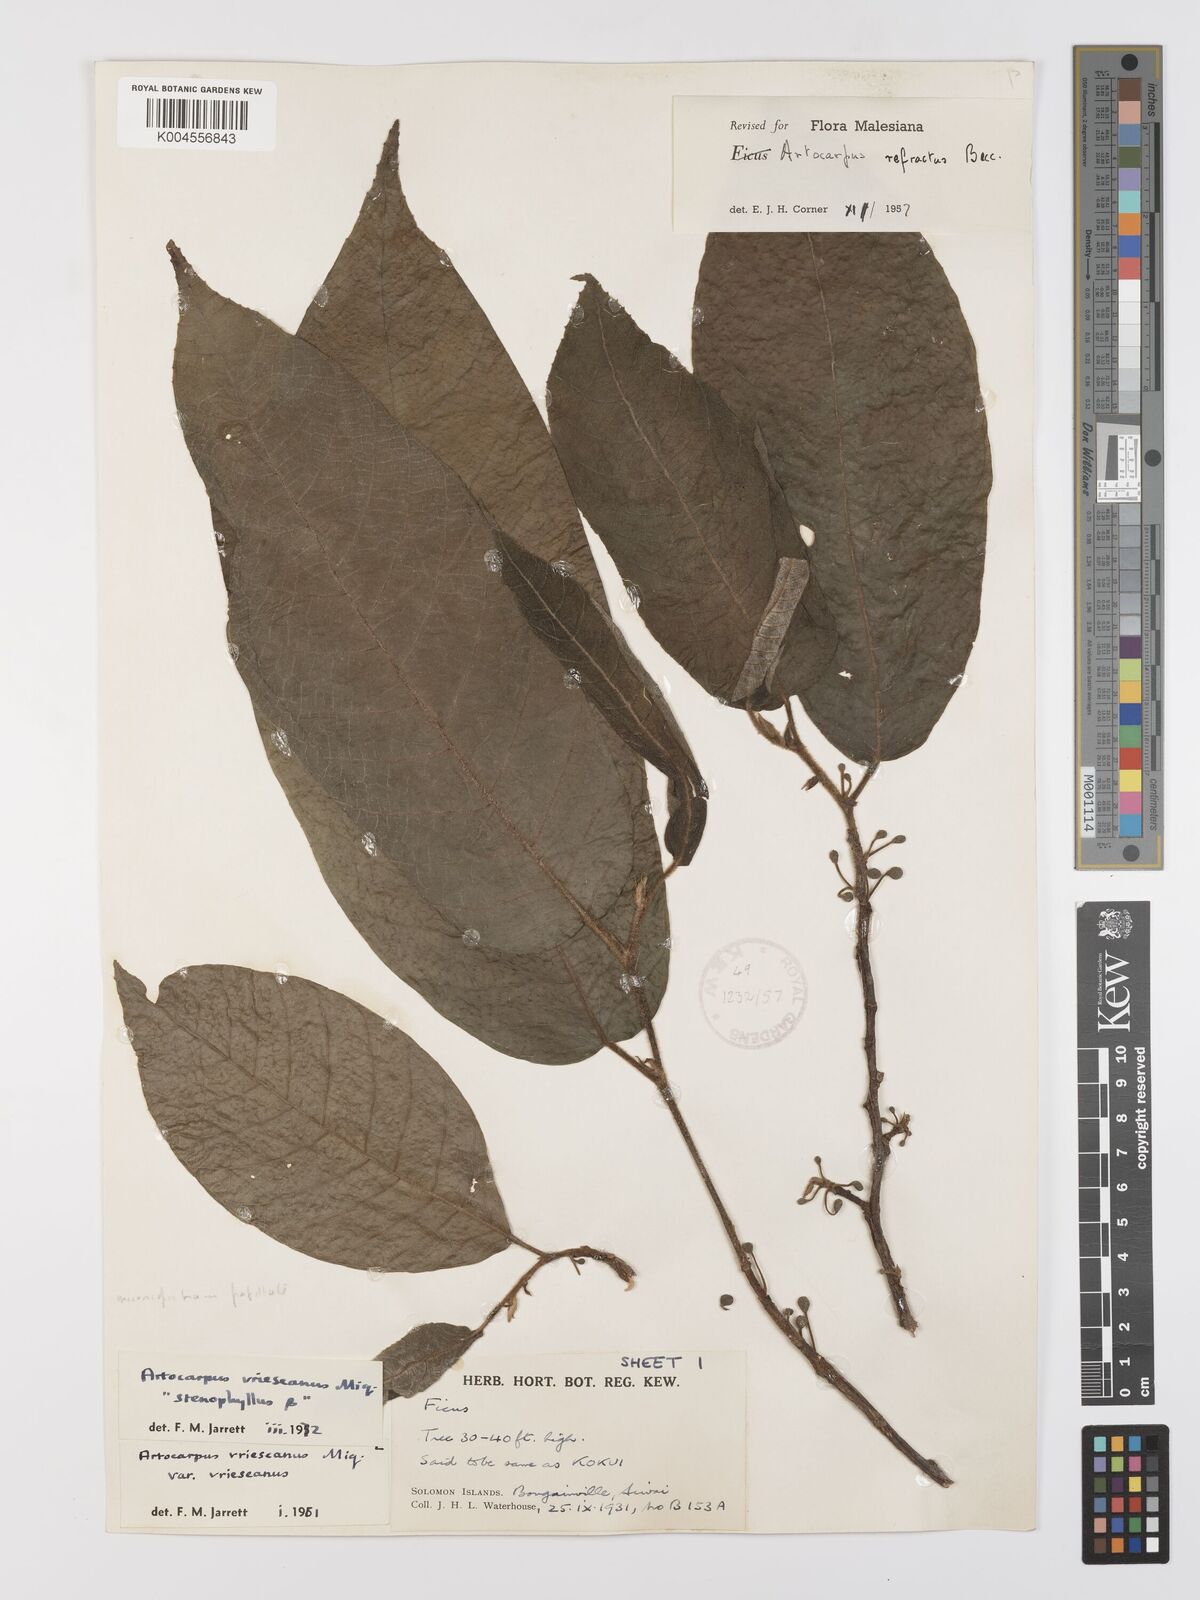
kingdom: Plantae
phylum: Tracheophyta
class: Magnoliopsida
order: Rosales
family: Moraceae
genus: Artocarpus
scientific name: Artocarpus vrieseanus
